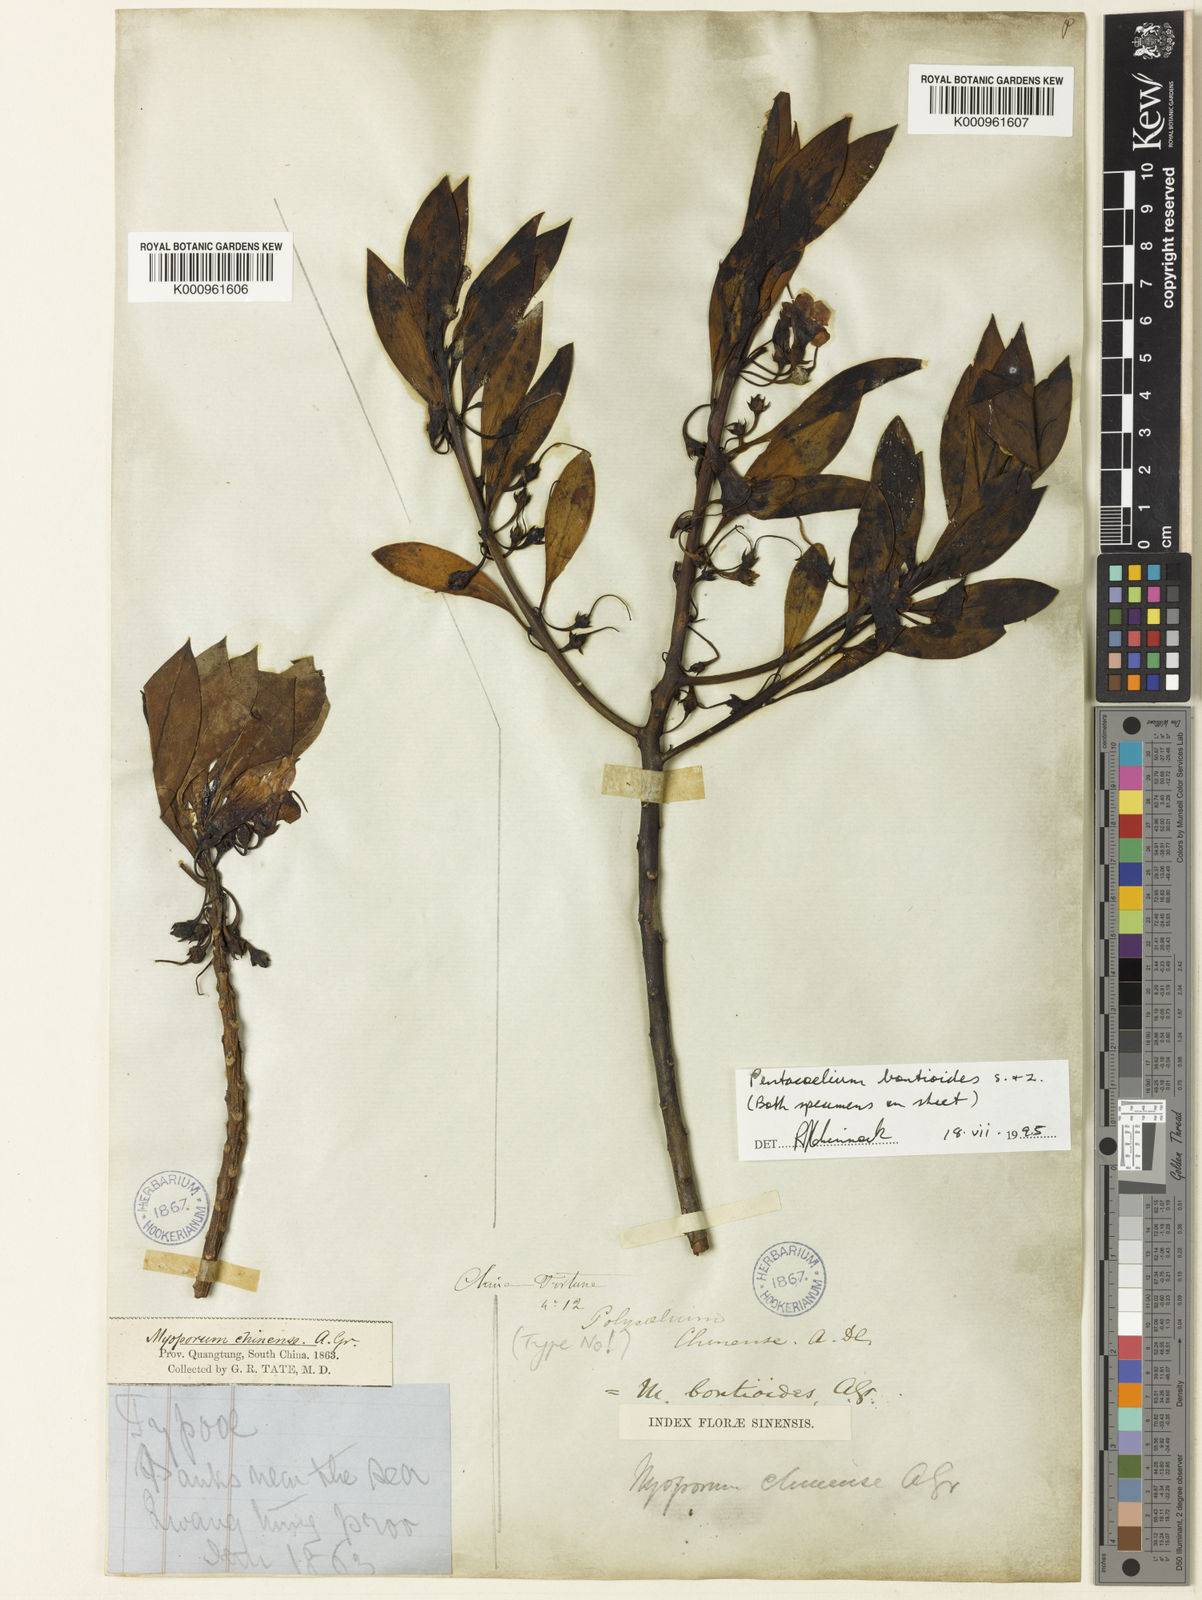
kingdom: Plantae
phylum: Tracheophyta
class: Magnoliopsida
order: Lamiales
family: Scrophulariaceae
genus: Myoporum
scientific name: Myoporum bontioides
